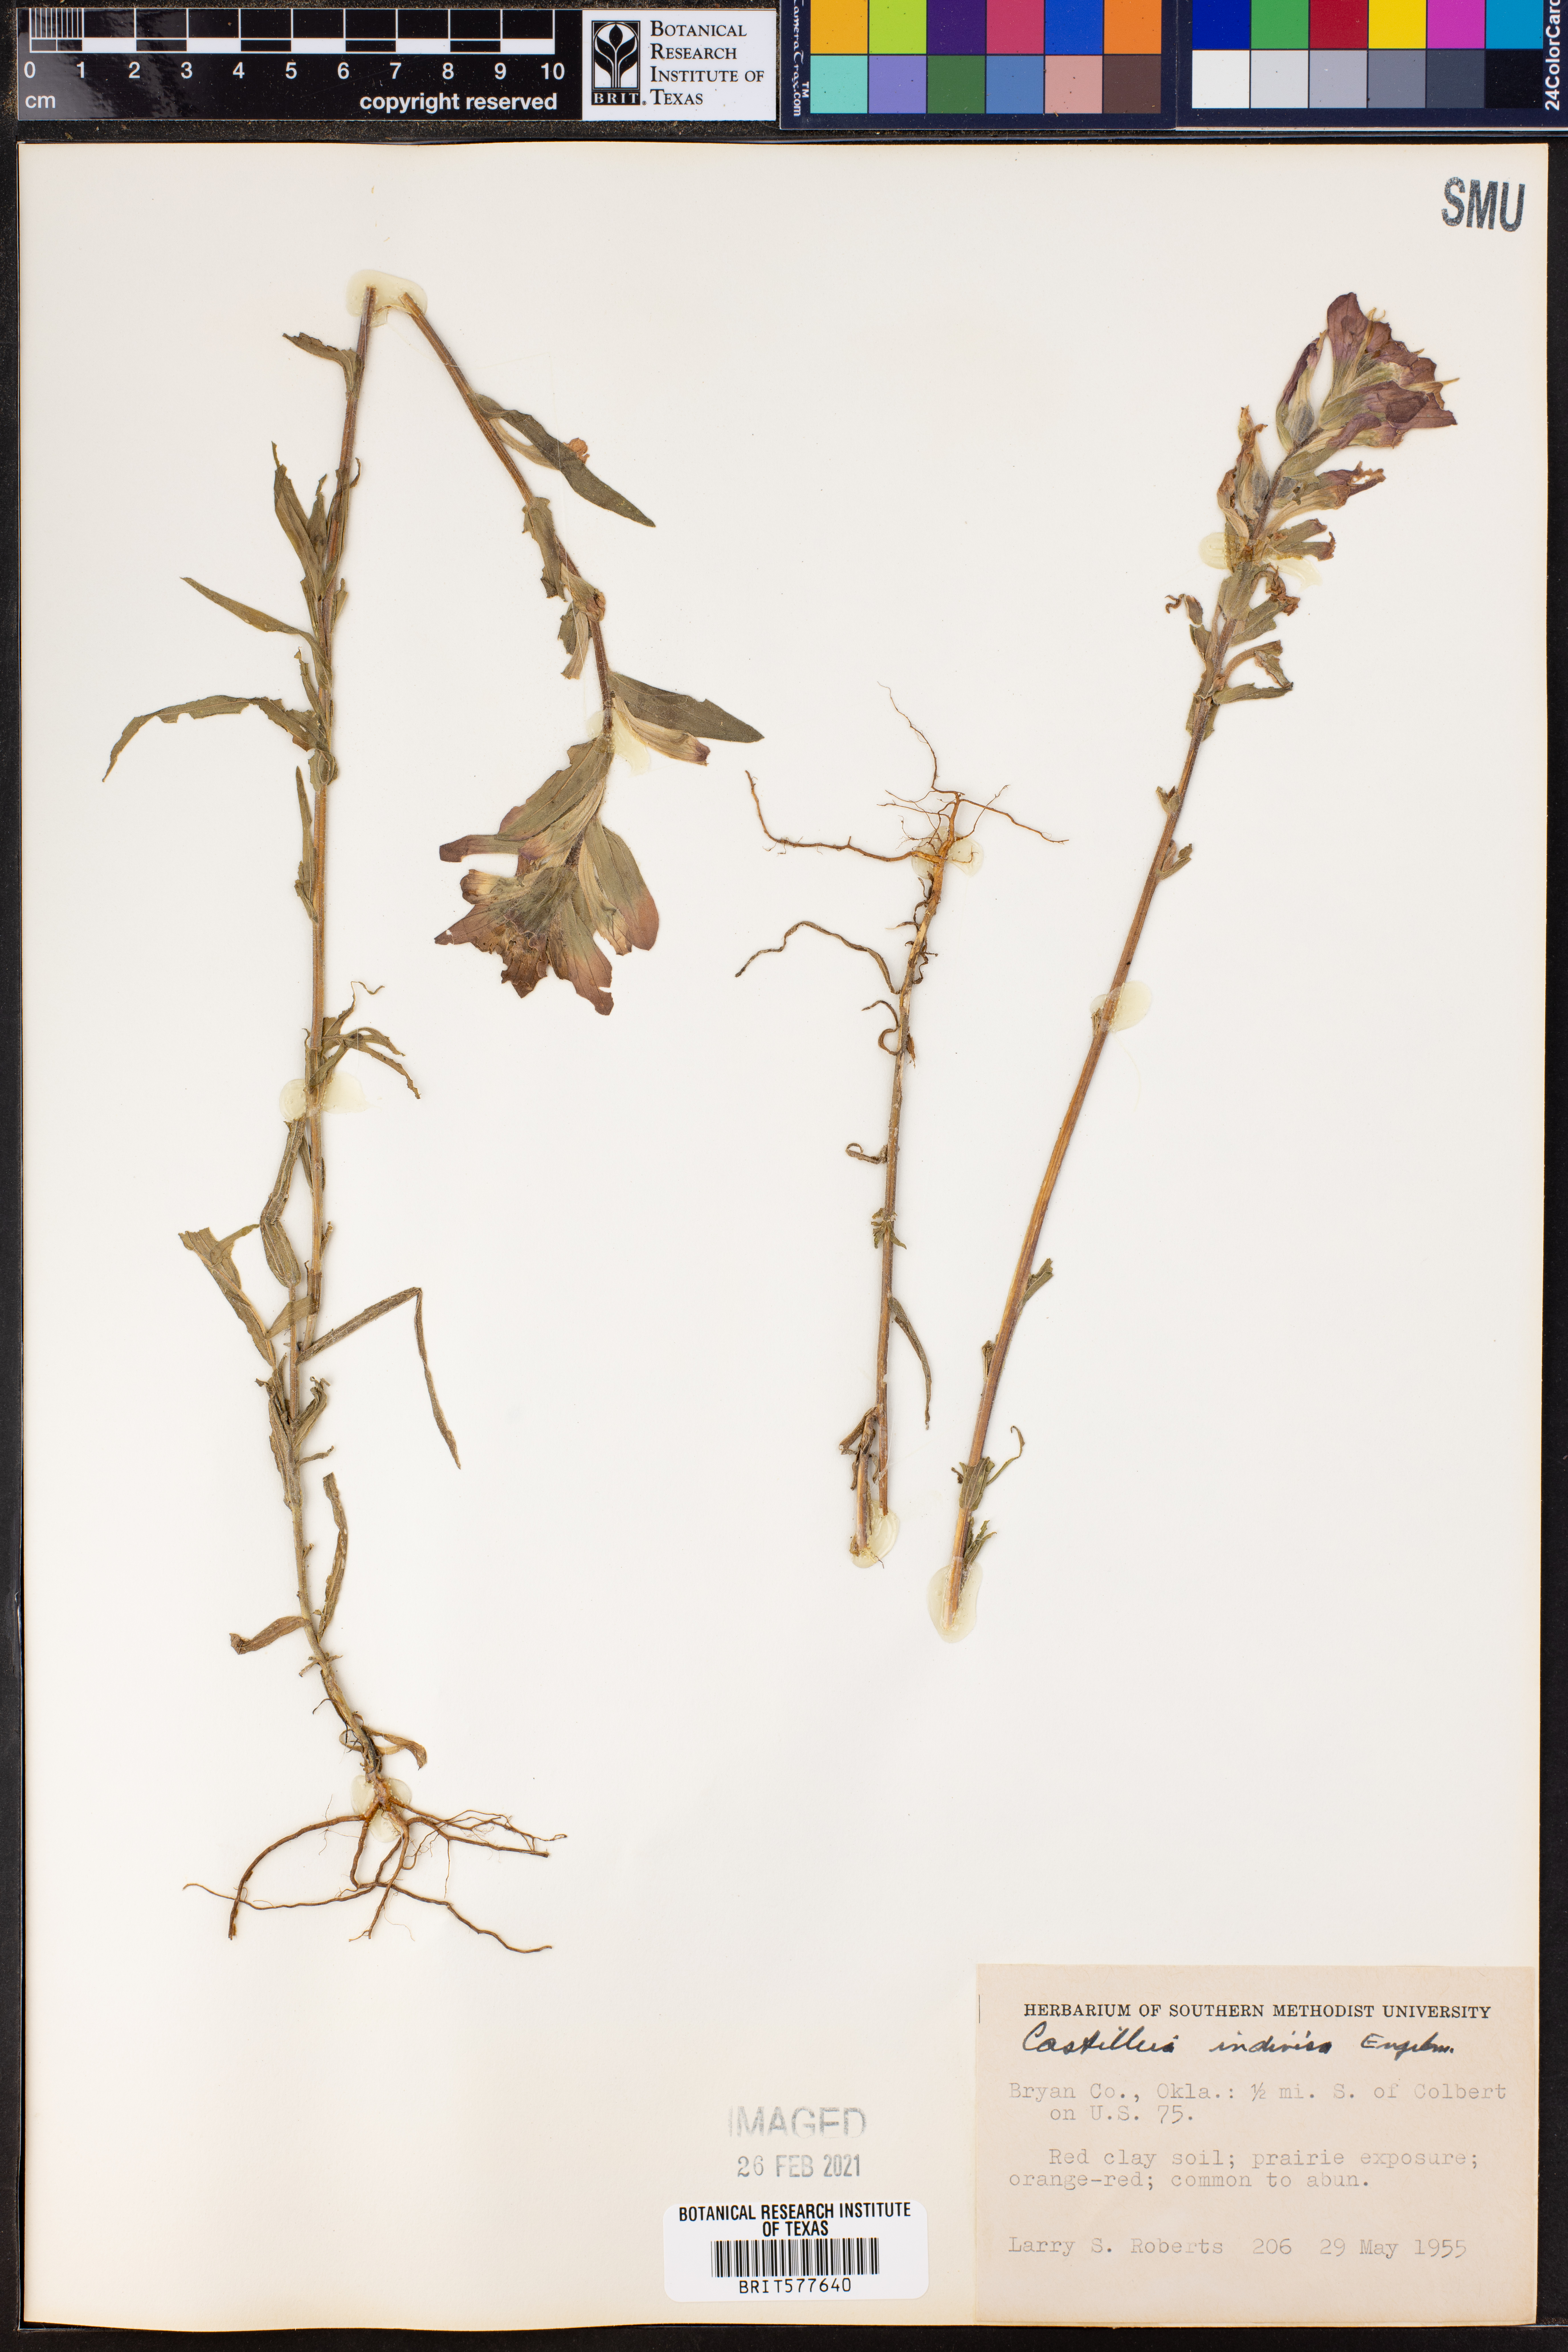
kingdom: Plantae
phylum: Tracheophyta
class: Magnoliopsida
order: Lamiales
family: Orobanchaceae
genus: Castilleja
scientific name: Castilleja indivisa
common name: Texas paintbrush
